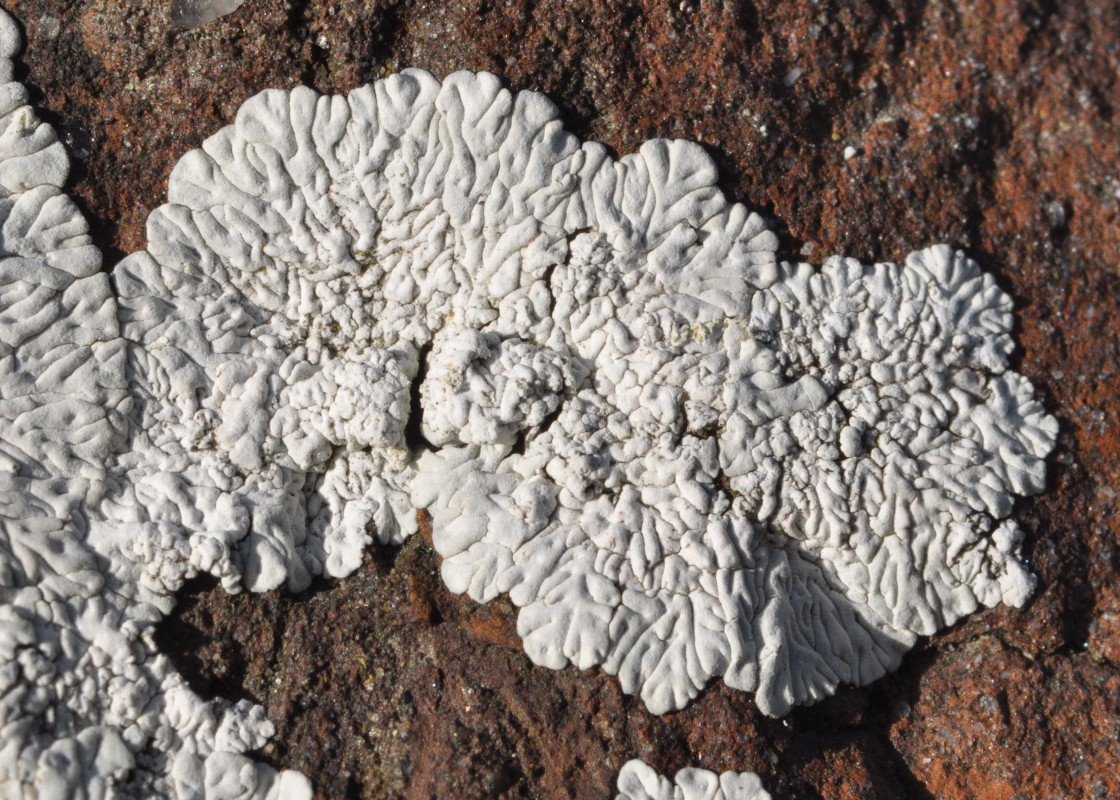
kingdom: Fungi
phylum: Ascomycota
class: Lecanoromycetes
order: Caliciales
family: Caliciaceae
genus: Diploicia
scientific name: Diploicia canescens
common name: grå støvrosetlav
